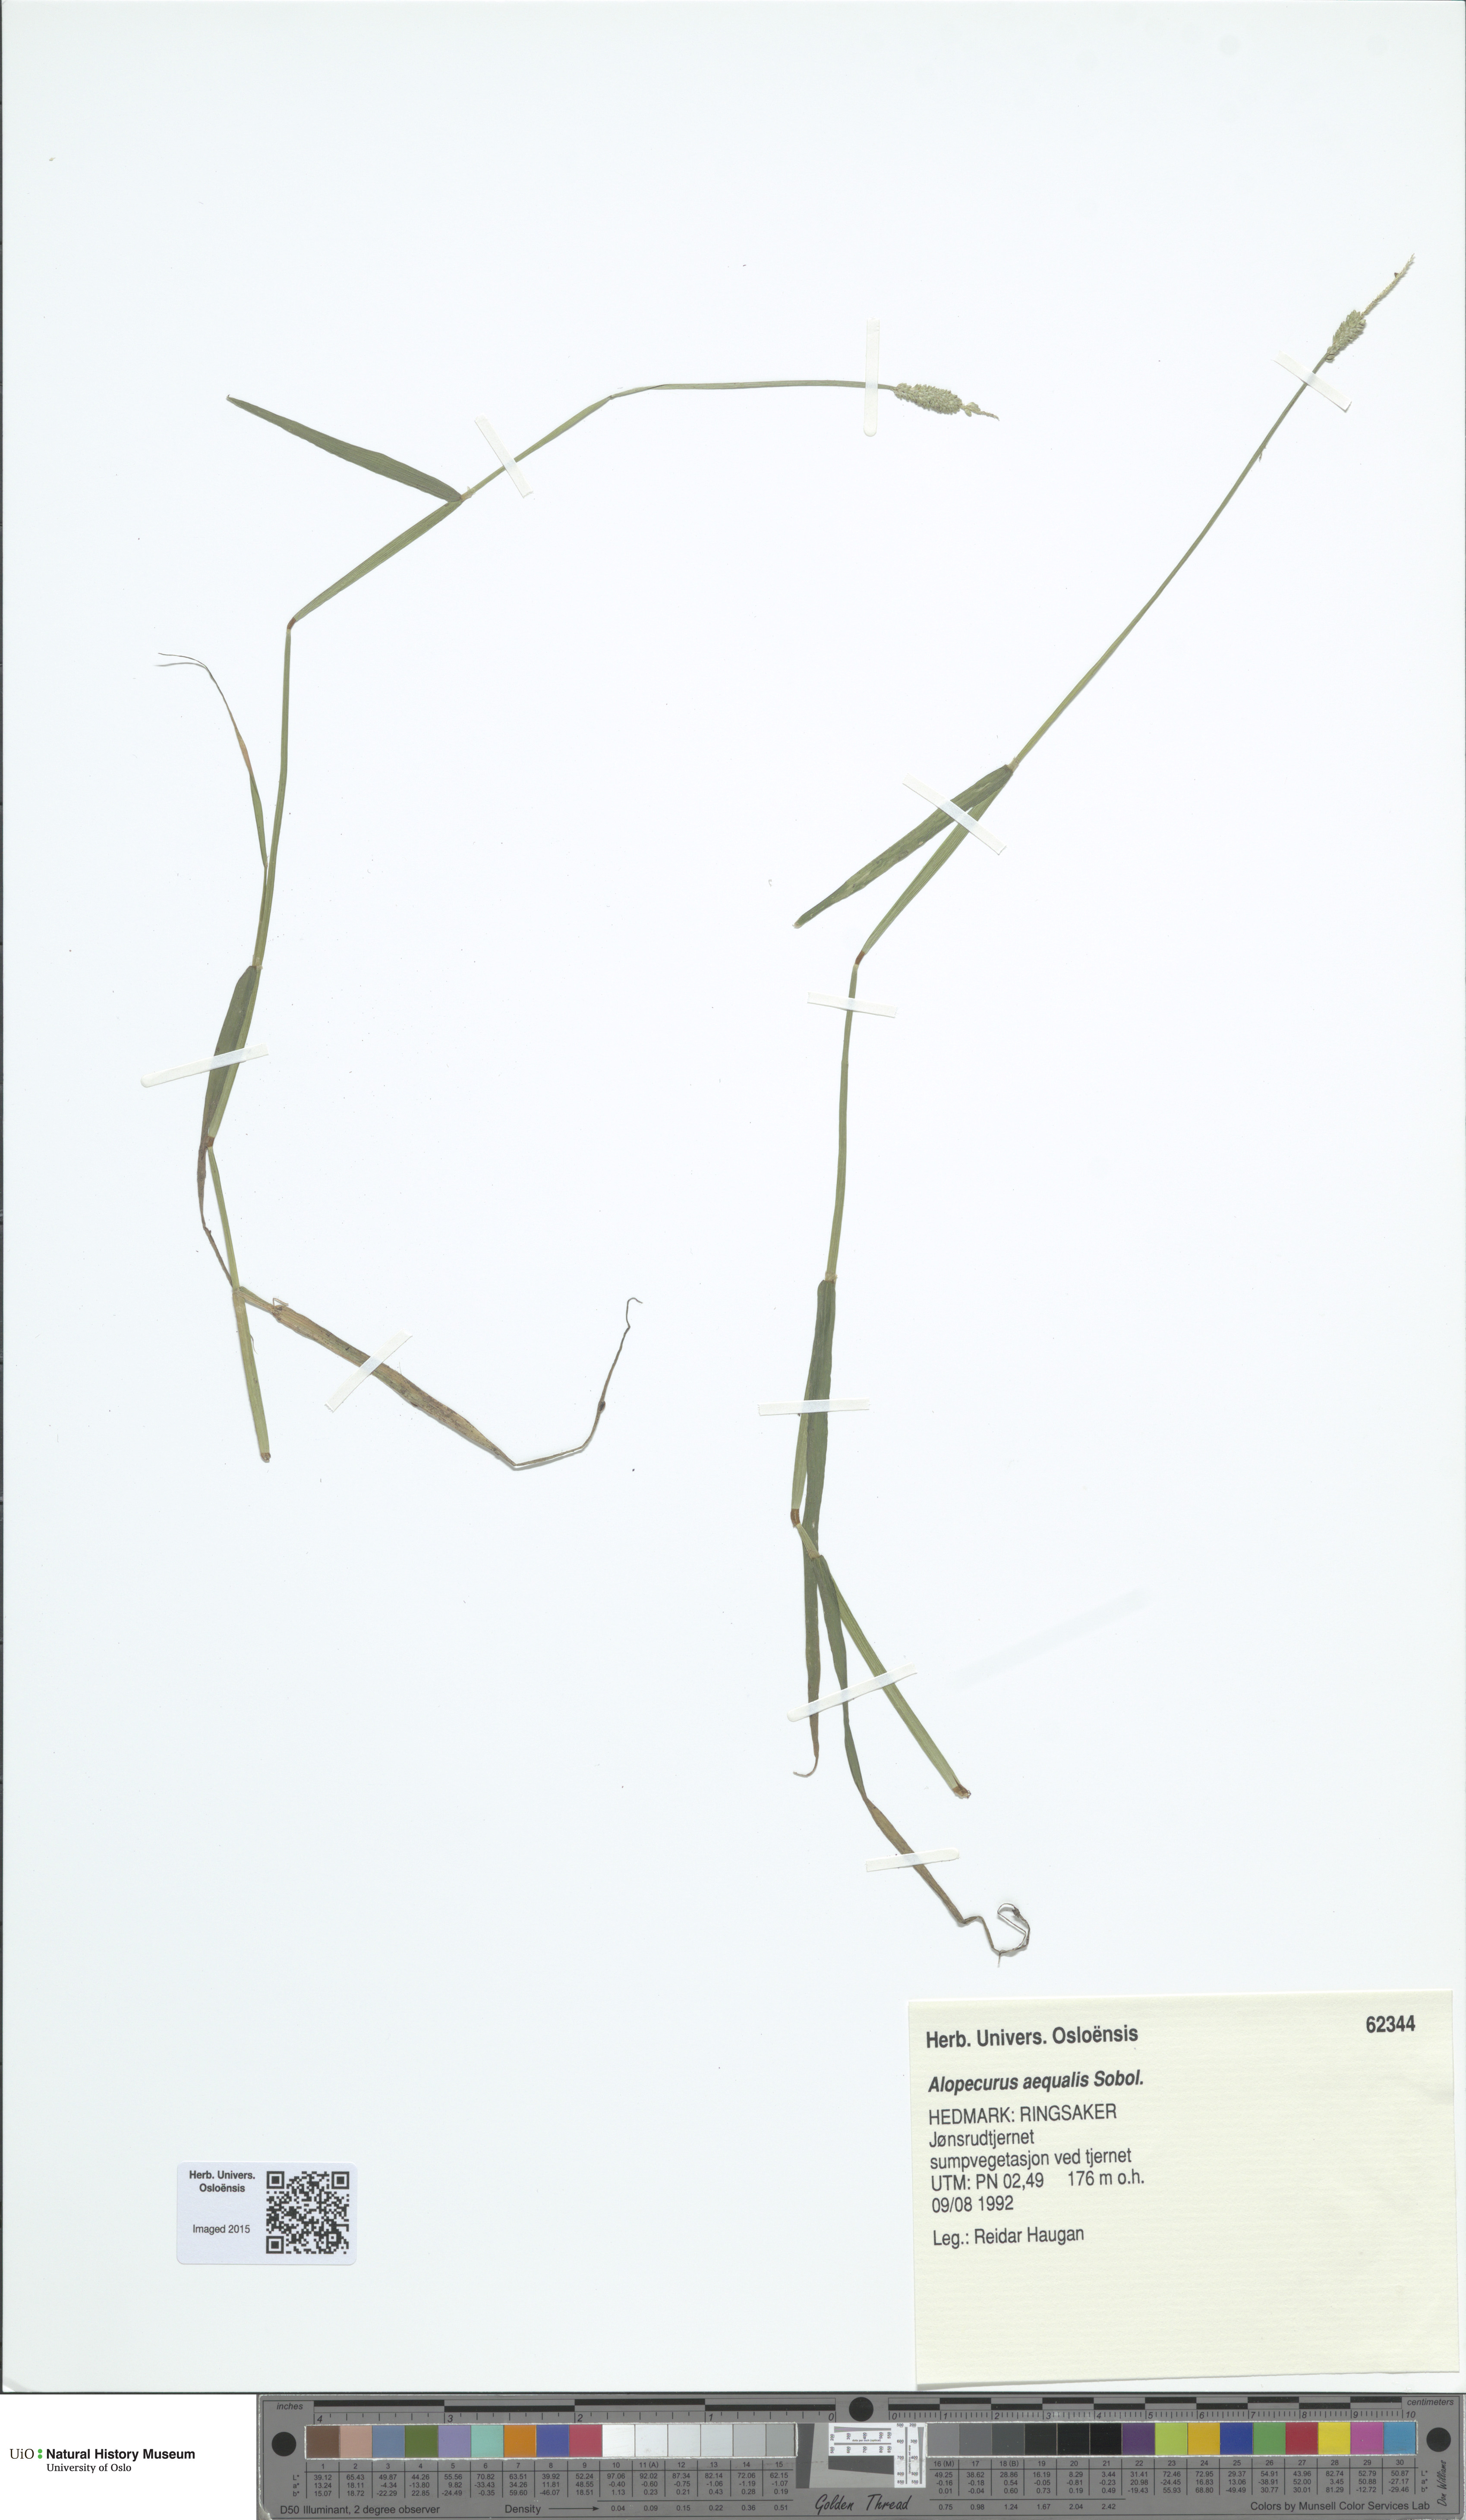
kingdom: Plantae
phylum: Tracheophyta
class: Liliopsida
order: Poales
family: Poaceae
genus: Alopecurus
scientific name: Alopecurus aequalis
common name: Orange foxtail
